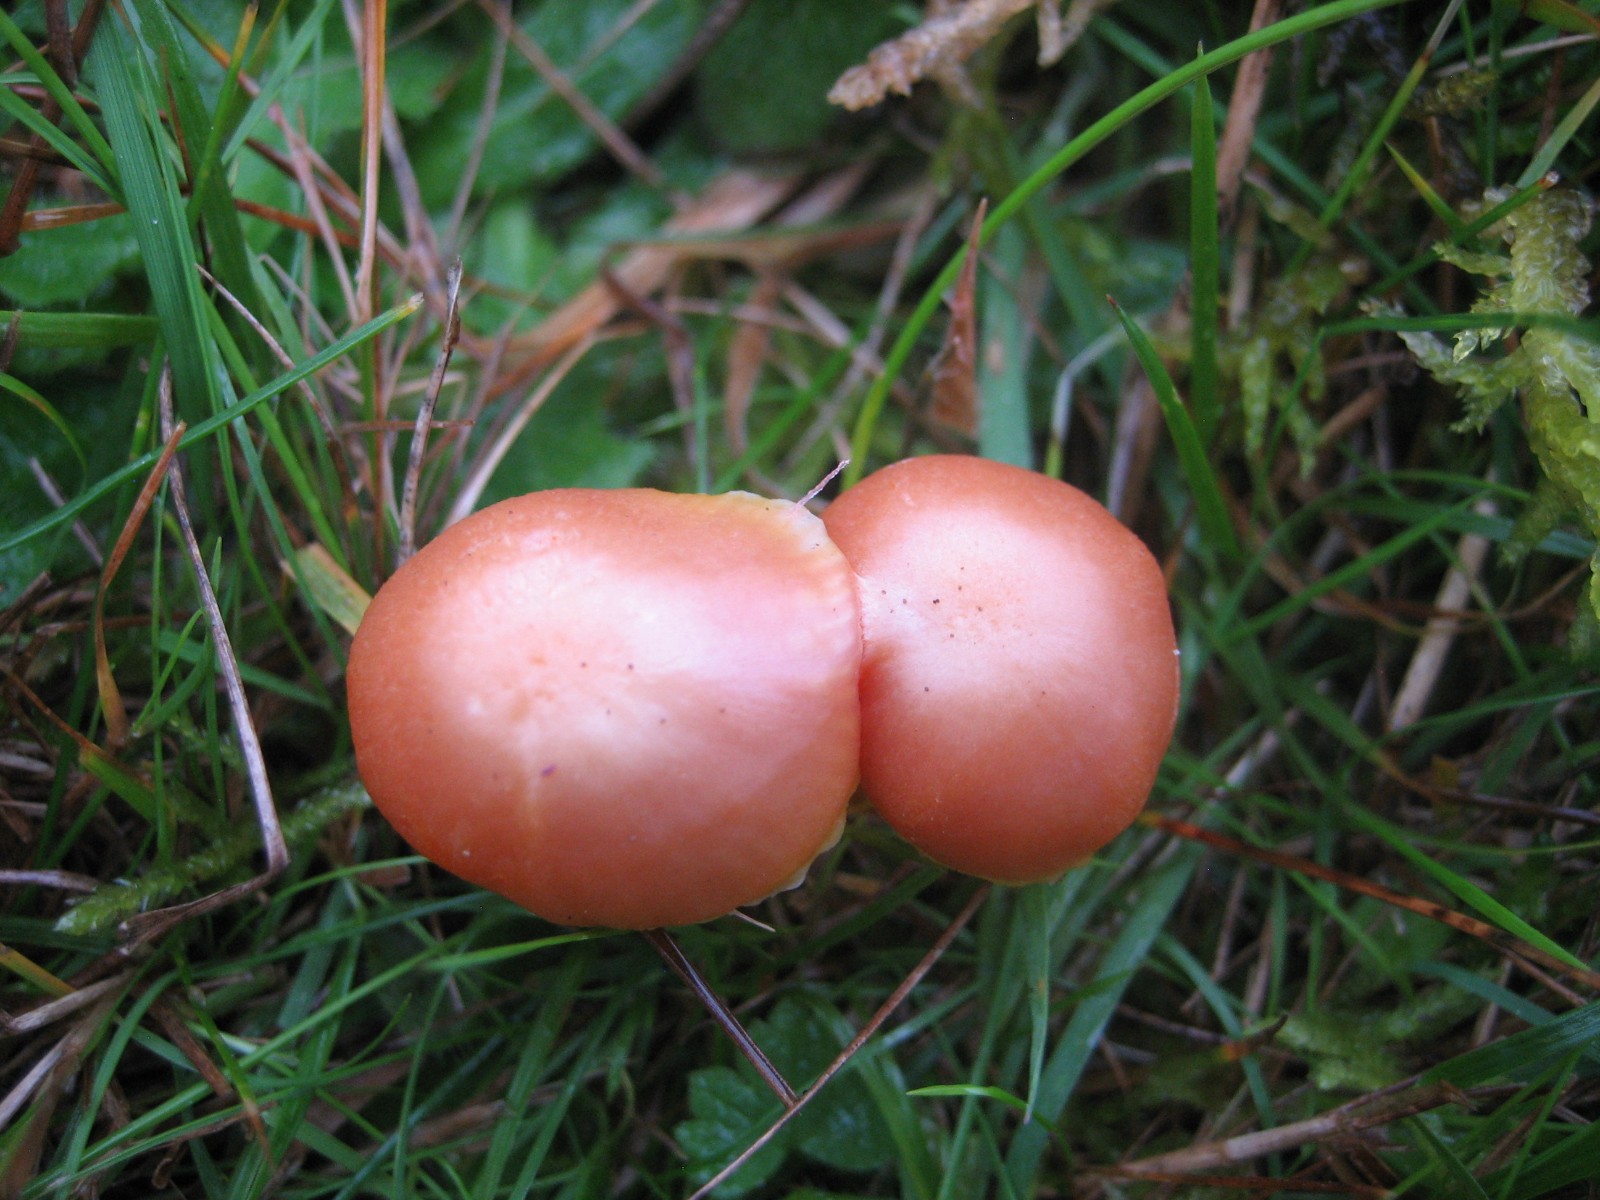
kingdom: Fungi
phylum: Basidiomycota
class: Agaricomycetes
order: Agaricales
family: Hygrophoraceae
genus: Hygrocybe
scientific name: Hygrocybe reidii
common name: honning-vokshat
